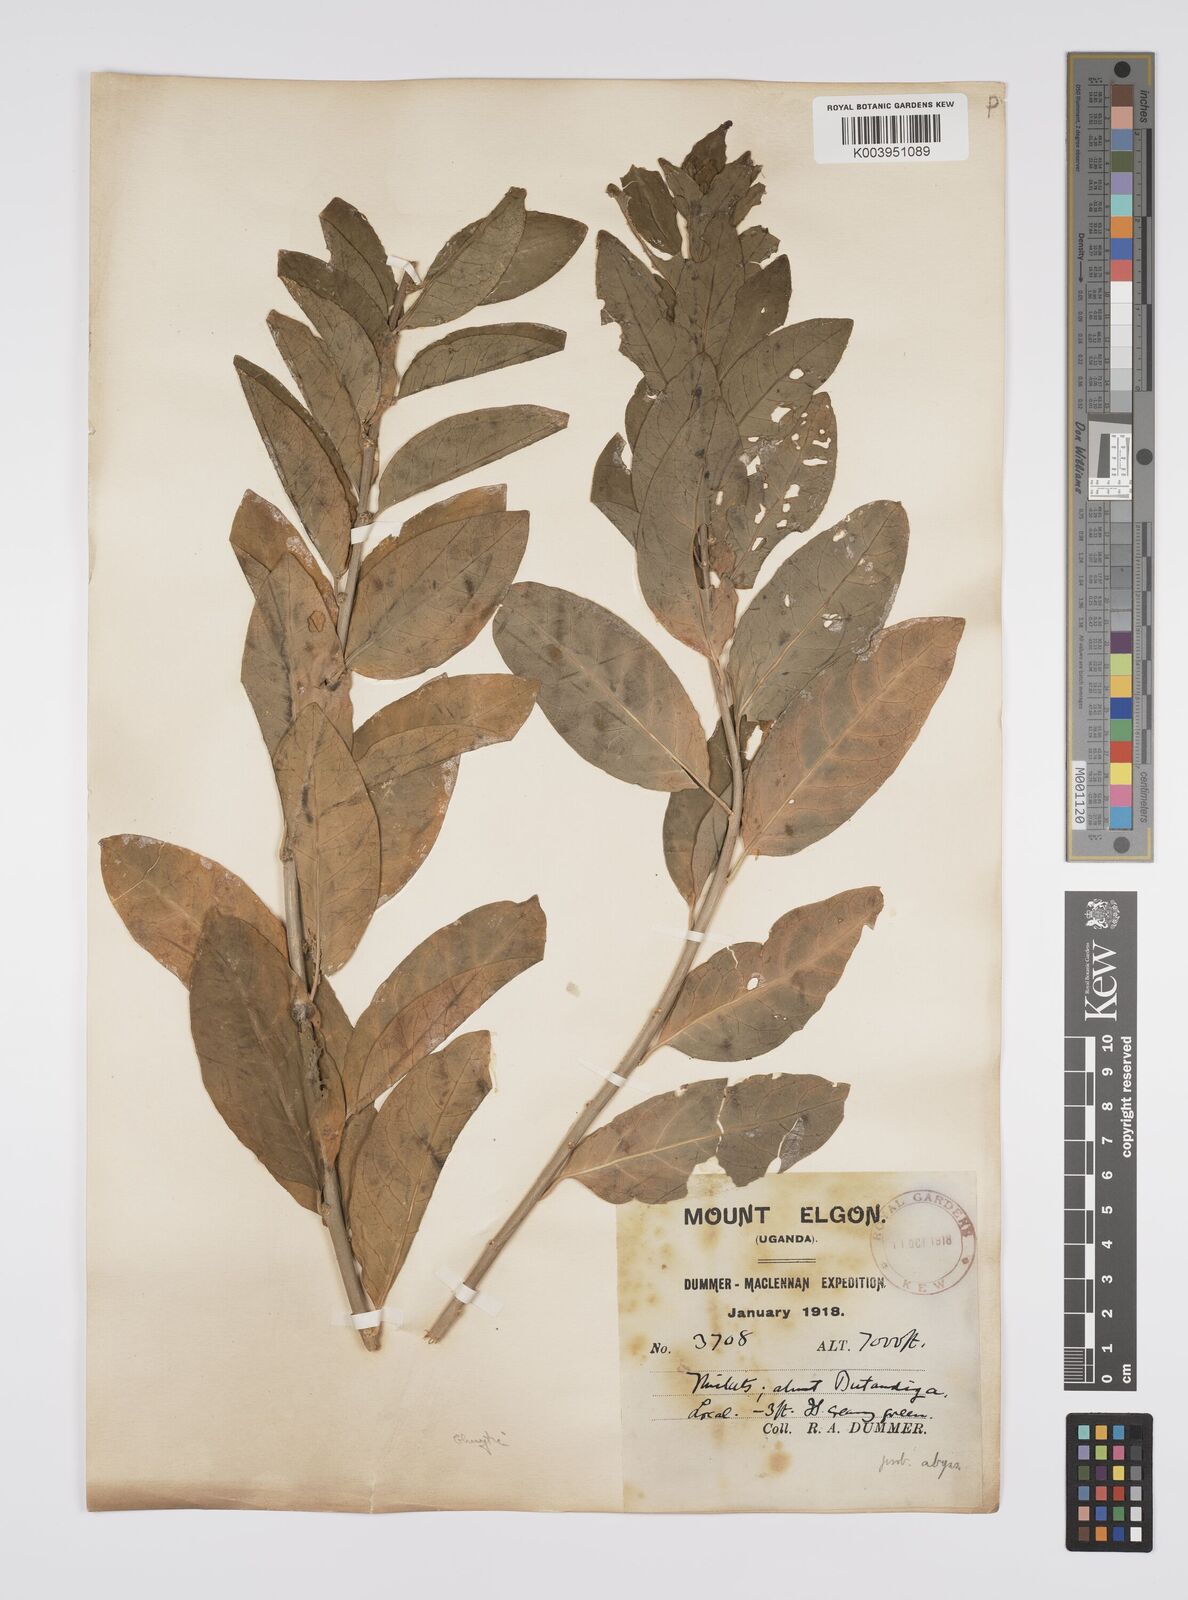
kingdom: Plantae
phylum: Tracheophyta
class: Magnoliopsida
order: Malpighiales
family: Peraceae
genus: Clutia
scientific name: Clutia
